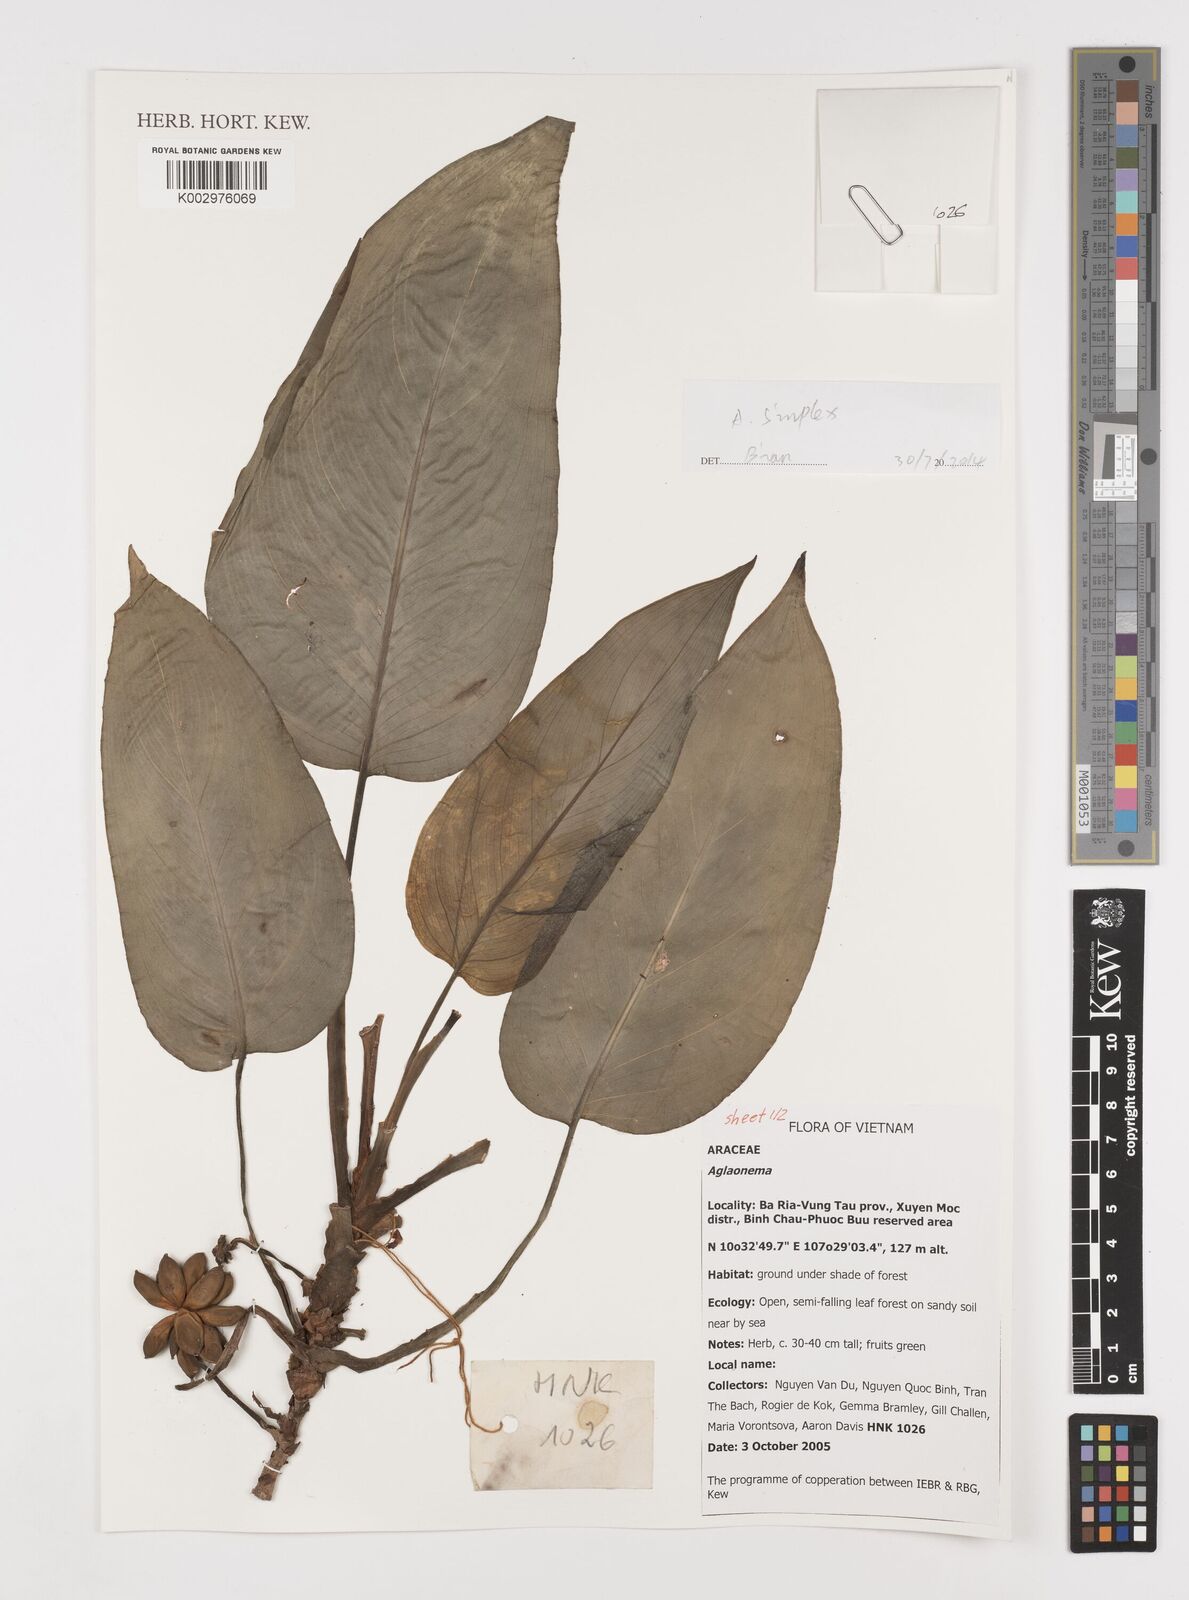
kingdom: Plantae
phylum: Tracheophyta
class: Liliopsida
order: Alismatales
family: Araceae
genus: Aglaonema
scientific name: Aglaonema simplex
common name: Malayan-sword
